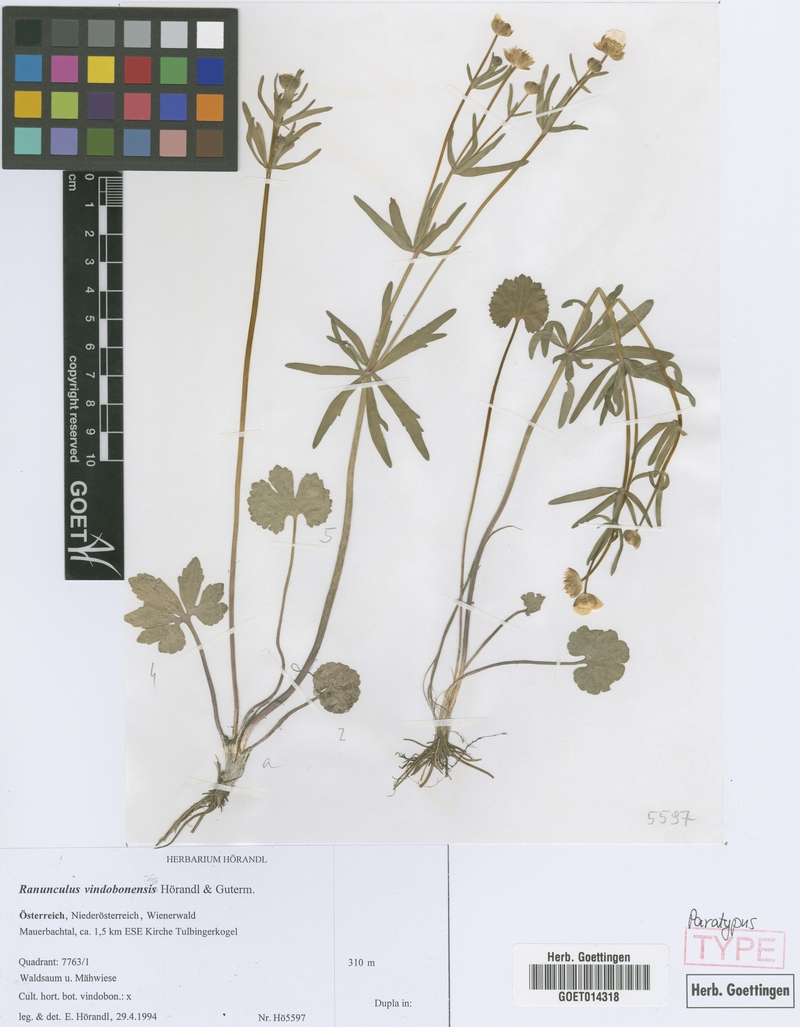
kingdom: Plantae
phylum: Tracheophyta
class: Magnoliopsida
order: Ranunculales
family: Ranunculaceae
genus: Ranunculus
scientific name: Ranunculus vindobonensis
